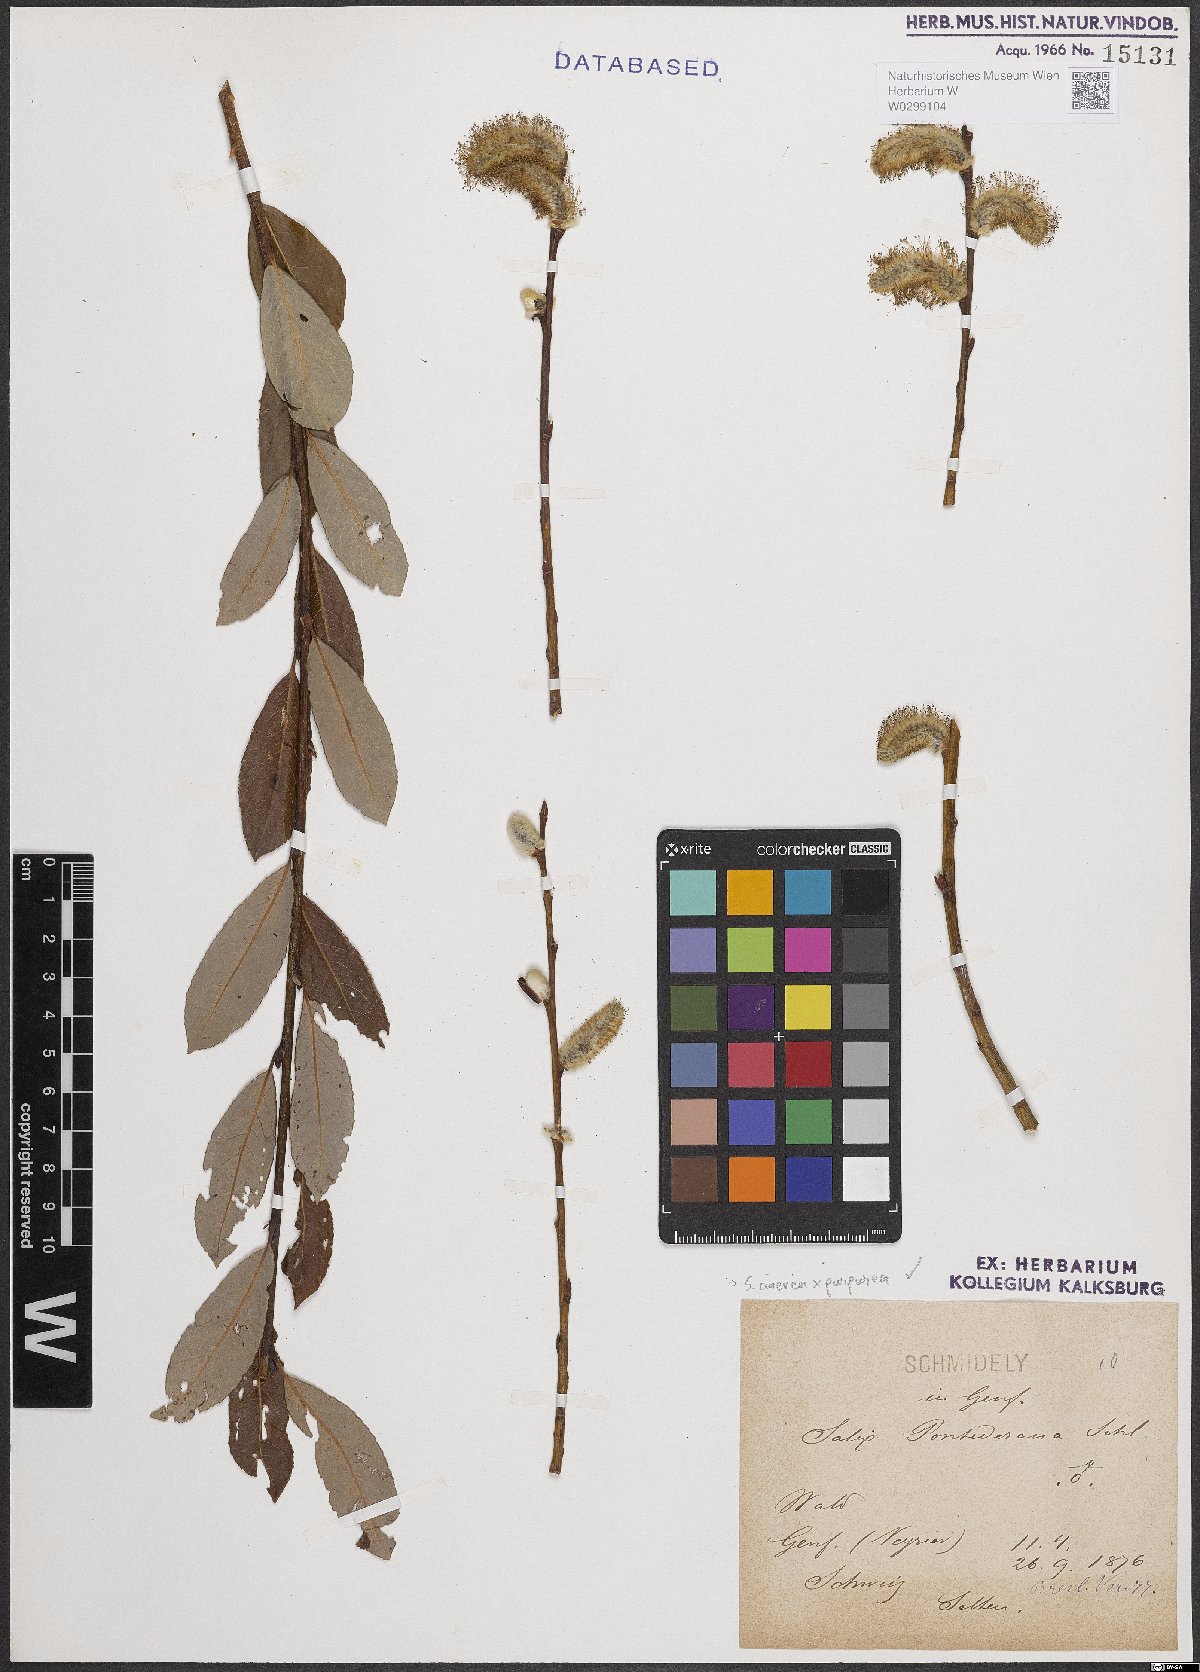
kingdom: Plantae
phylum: Tracheophyta
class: Magnoliopsida
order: Malpighiales
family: Salicaceae
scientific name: Salicaceae
